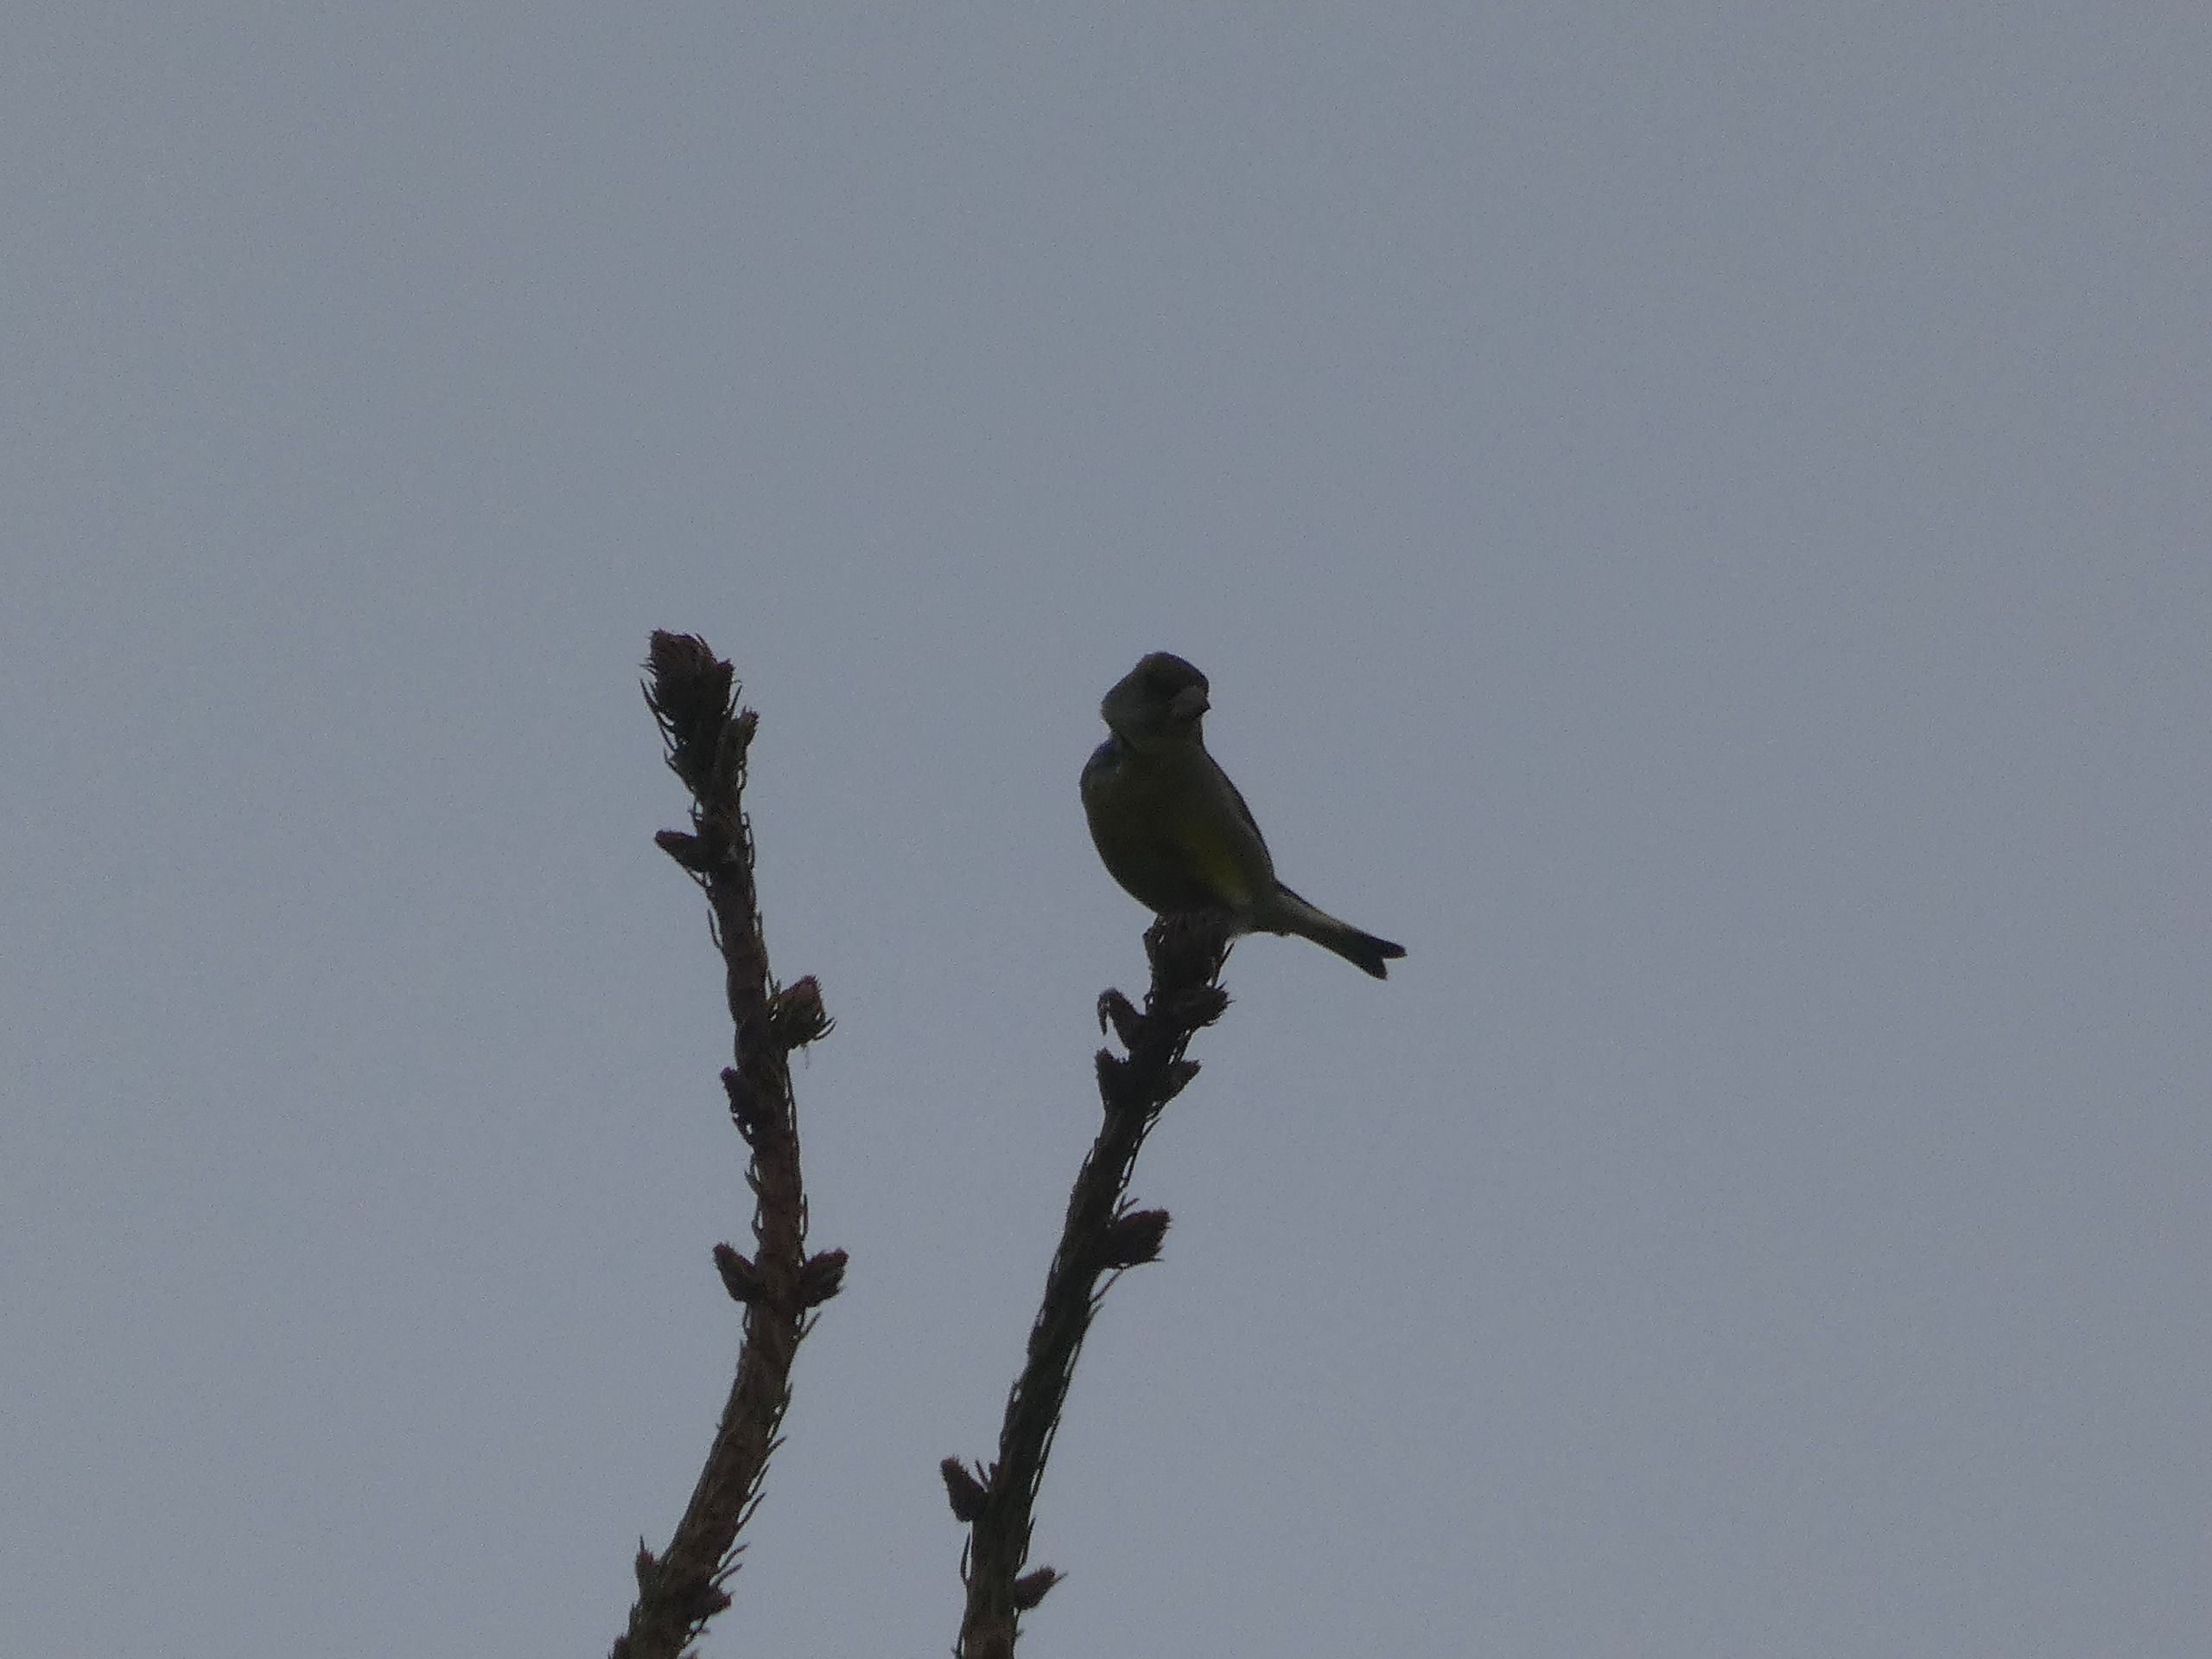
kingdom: Plantae
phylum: Tracheophyta
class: Liliopsida
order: Poales
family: Poaceae
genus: Chloris
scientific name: Chloris chloris
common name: Grønirisk
